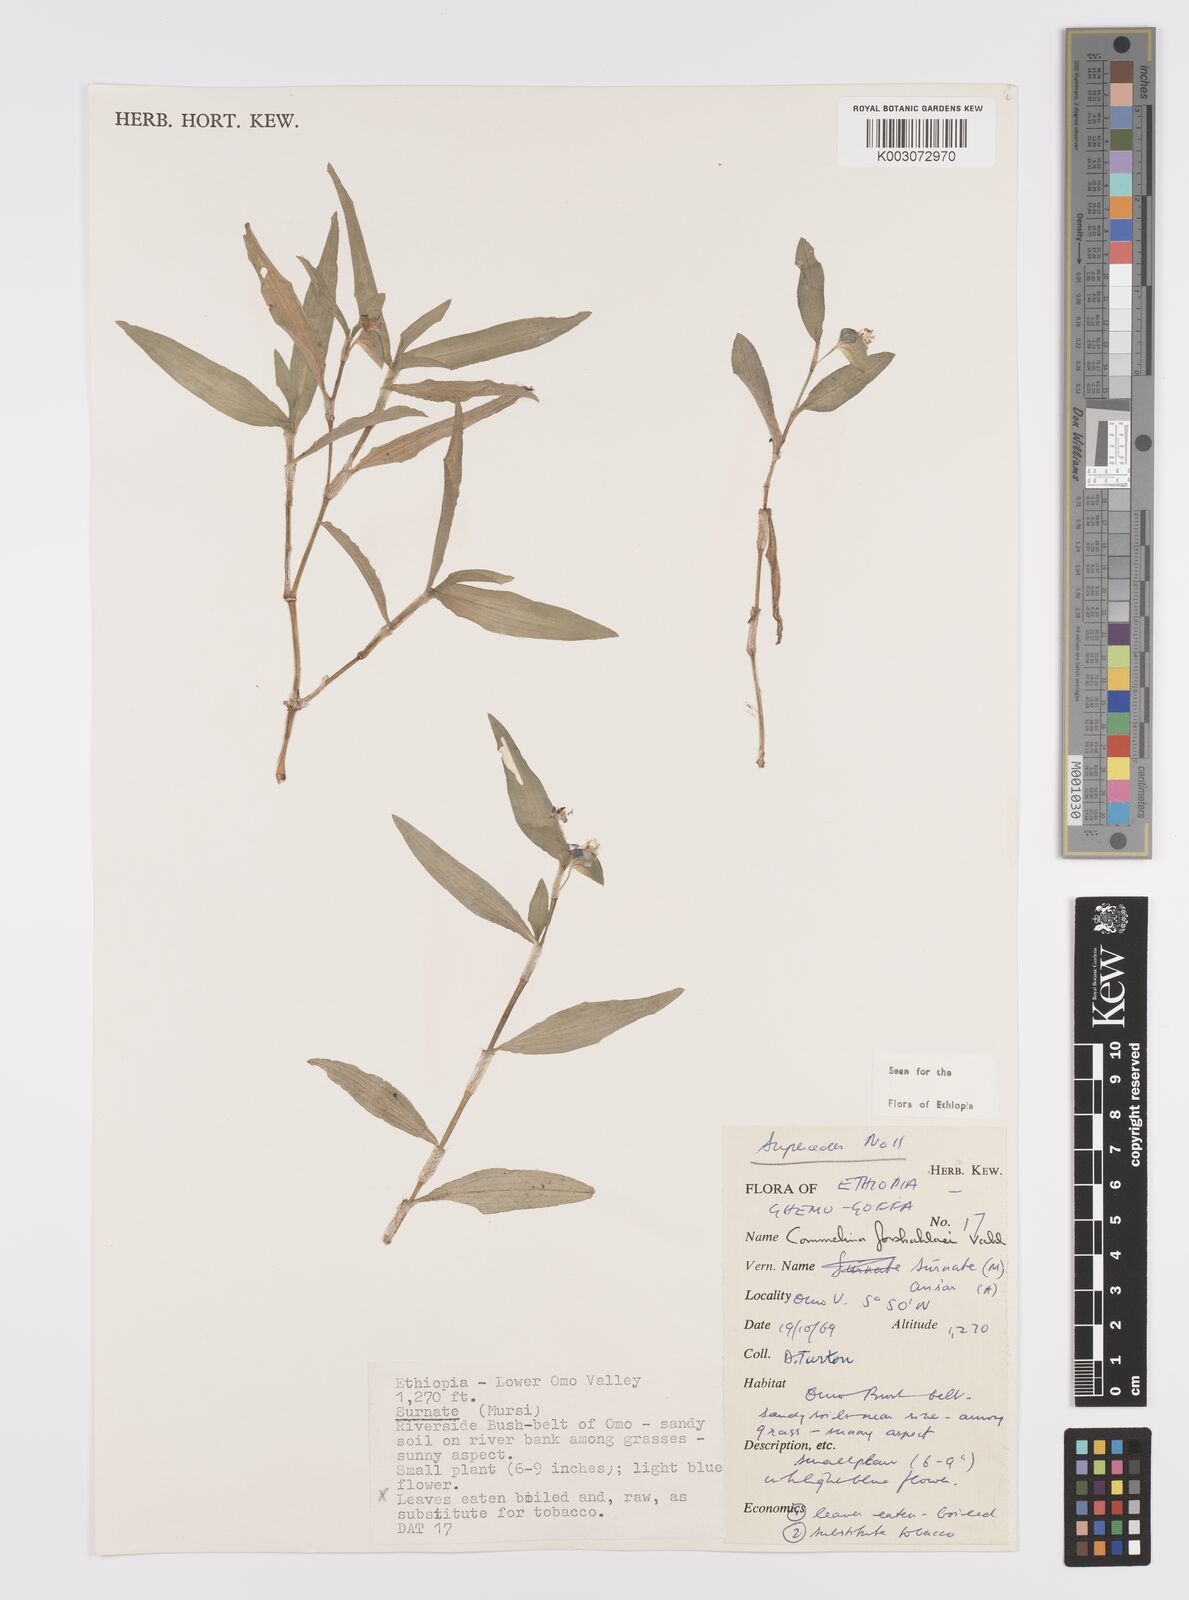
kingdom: Plantae
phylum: Tracheophyta
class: Liliopsida
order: Commelinales
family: Commelinaceae
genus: Commelina
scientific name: Commelina forskaolii
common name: Rat's ear
